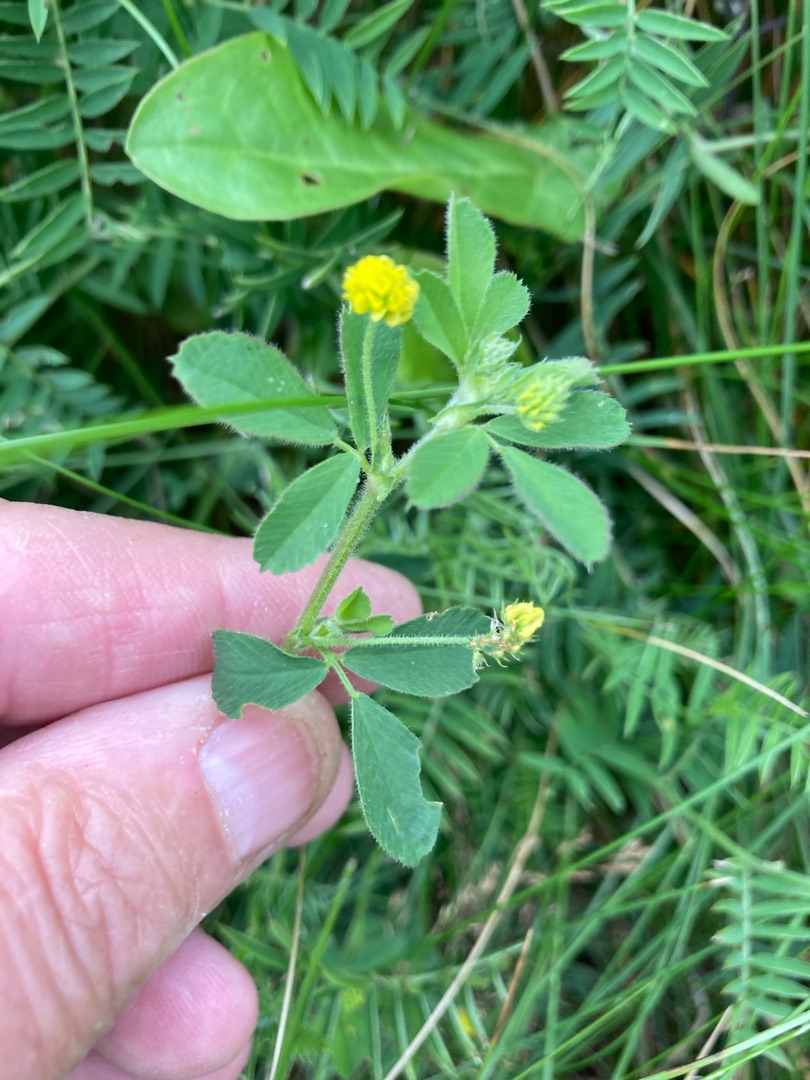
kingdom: Plantae
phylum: Tracheophyta
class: Magnoliopsida
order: Fabales
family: Fabaceae
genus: Medicago
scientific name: Medicago lupulina
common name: Humle-sneglebælg
